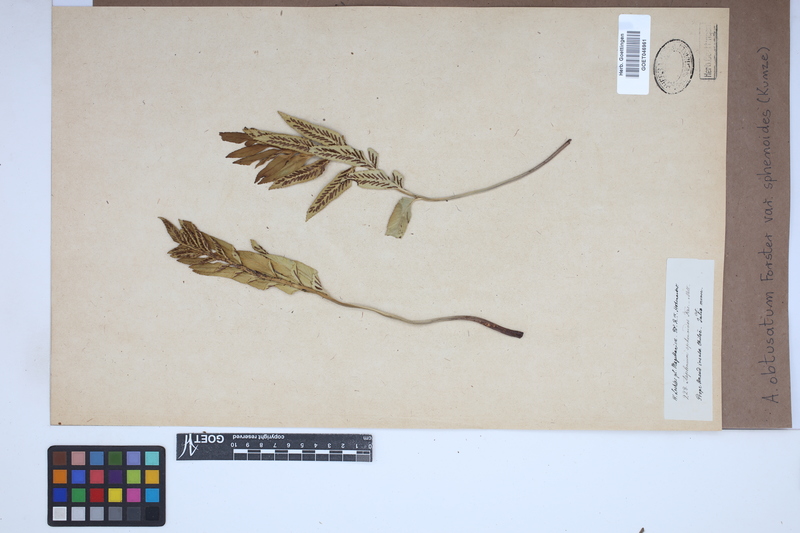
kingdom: Plantae
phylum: Tracheophyta
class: Polypodiopsida
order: Polypodiales
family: Aspleniaceae
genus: Asplenium
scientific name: Asplenium sphenoides
